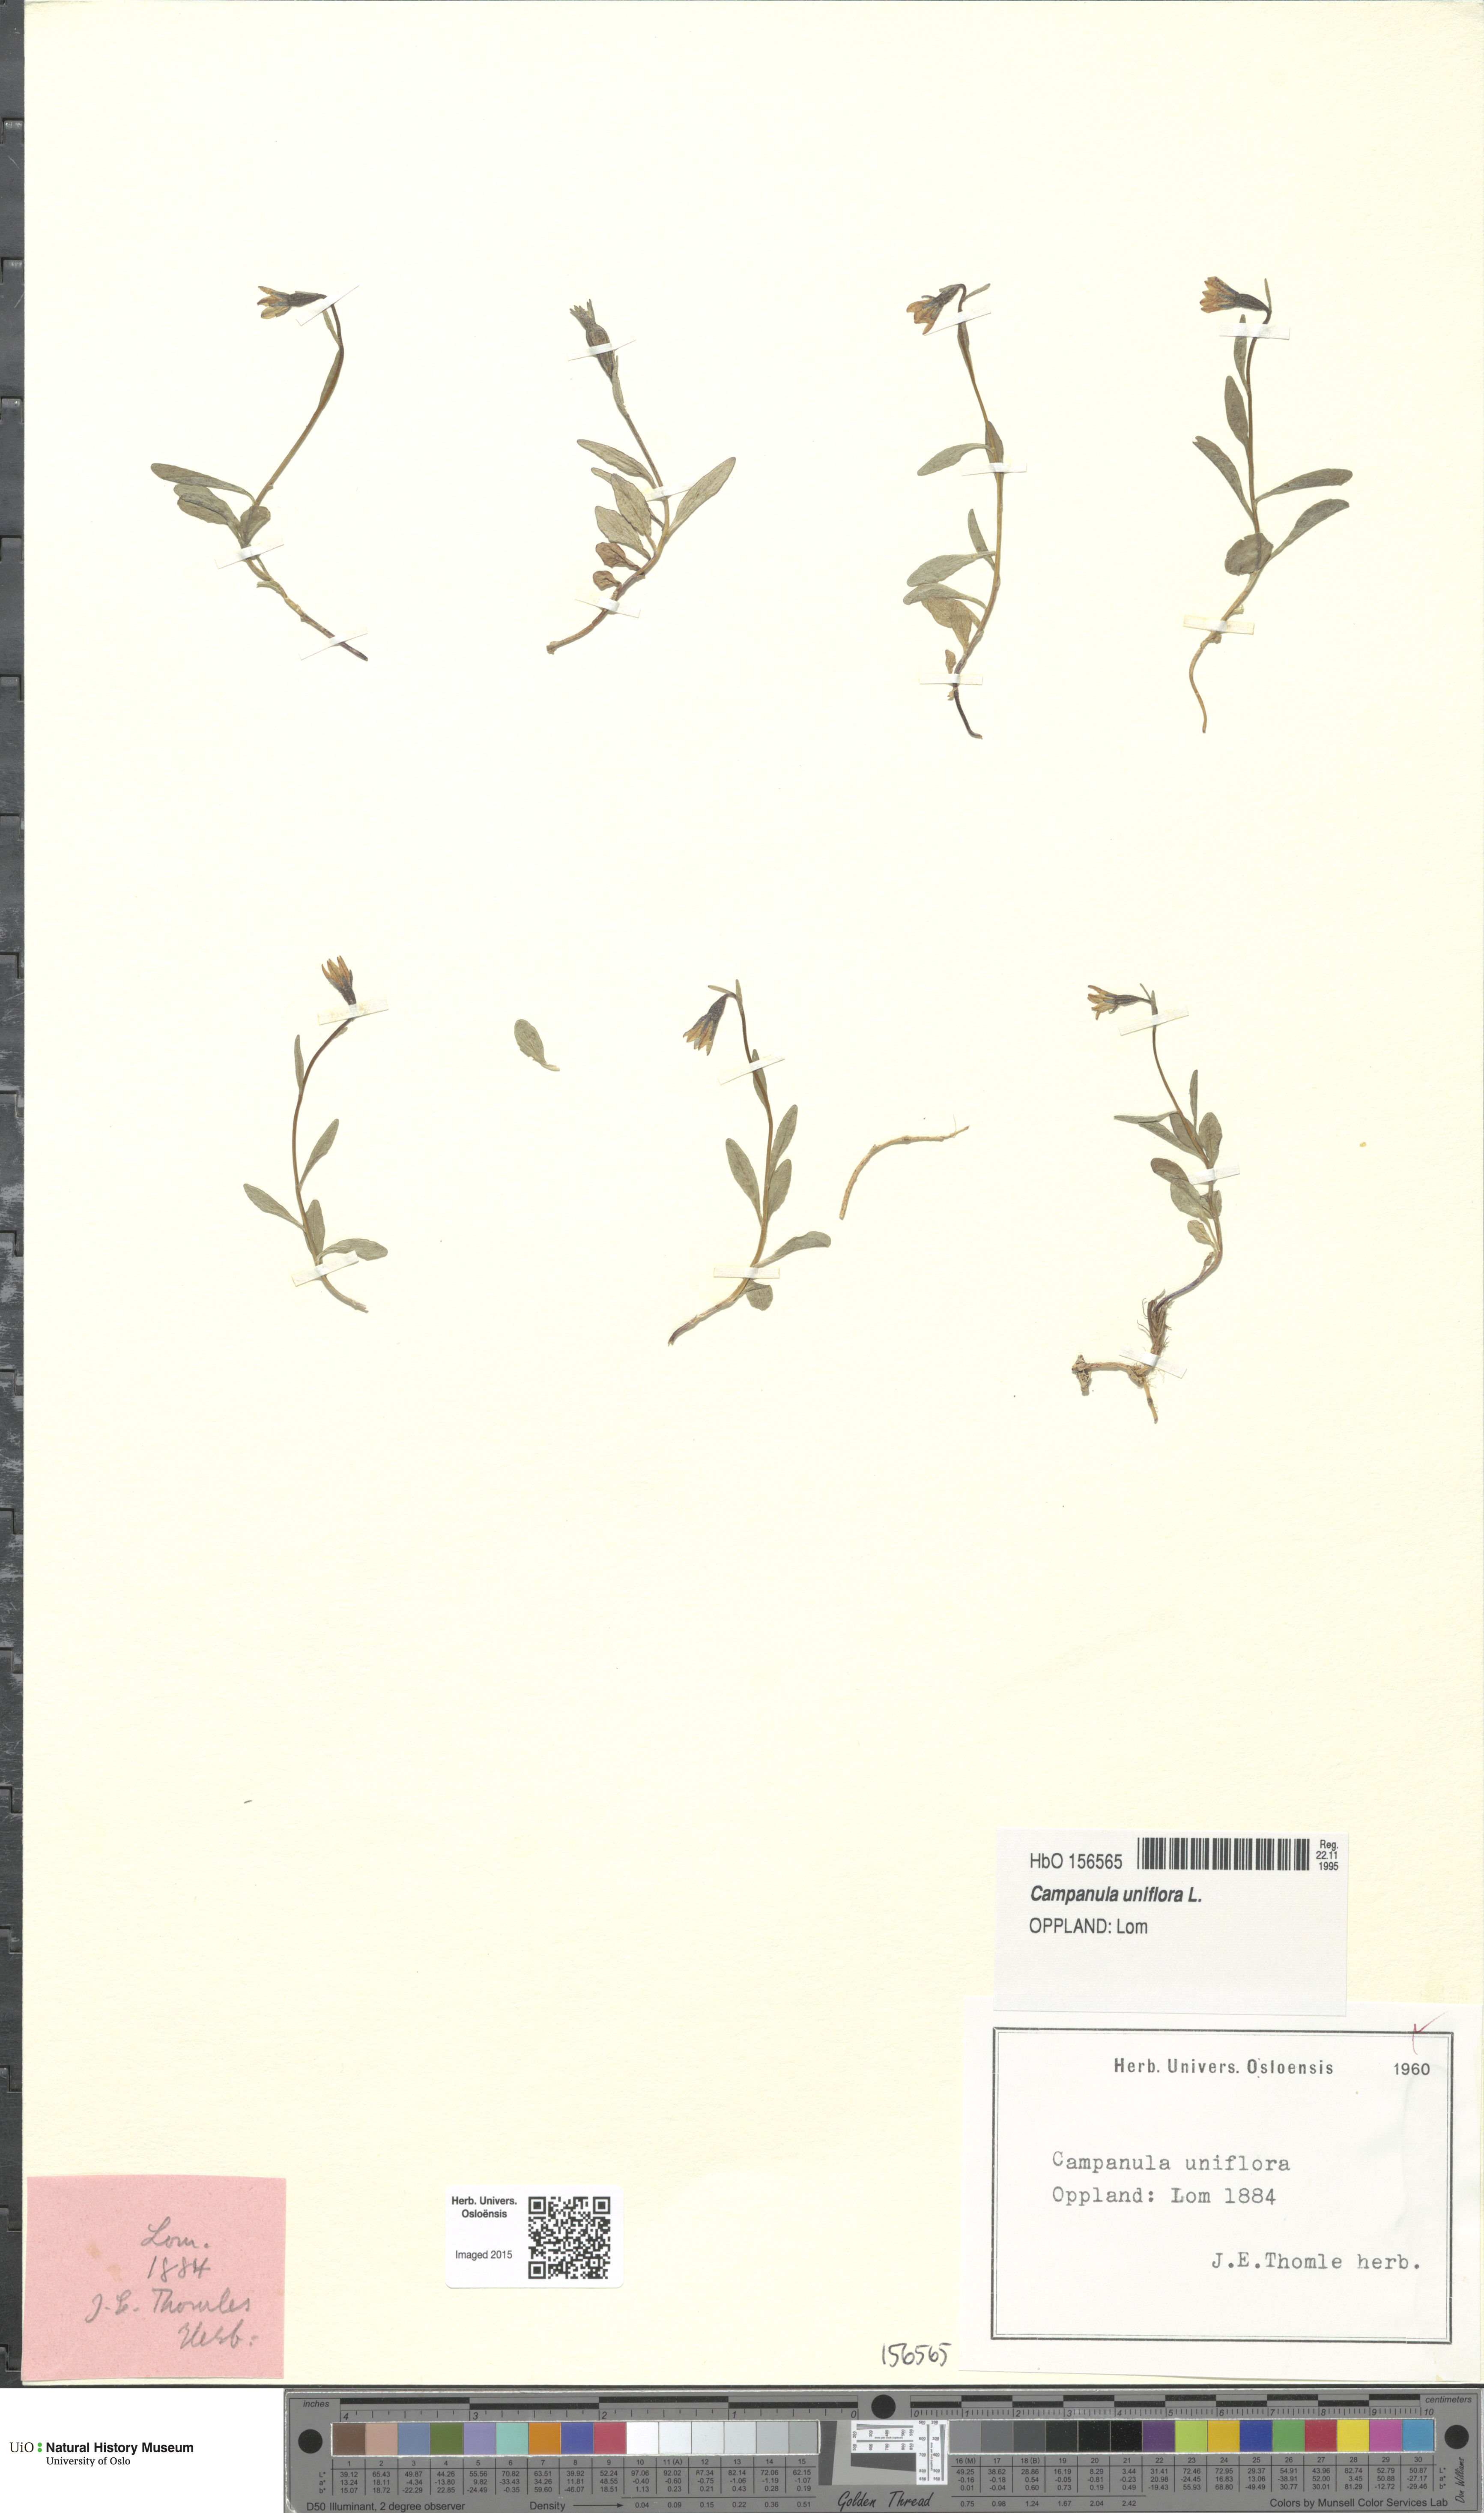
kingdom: Plantae
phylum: Tracheophyta
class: Magnoliopsida
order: Asterales
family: Campanulaceae
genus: Melanocalyx
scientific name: Melanocalyx uniflora
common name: Alpine harebell
